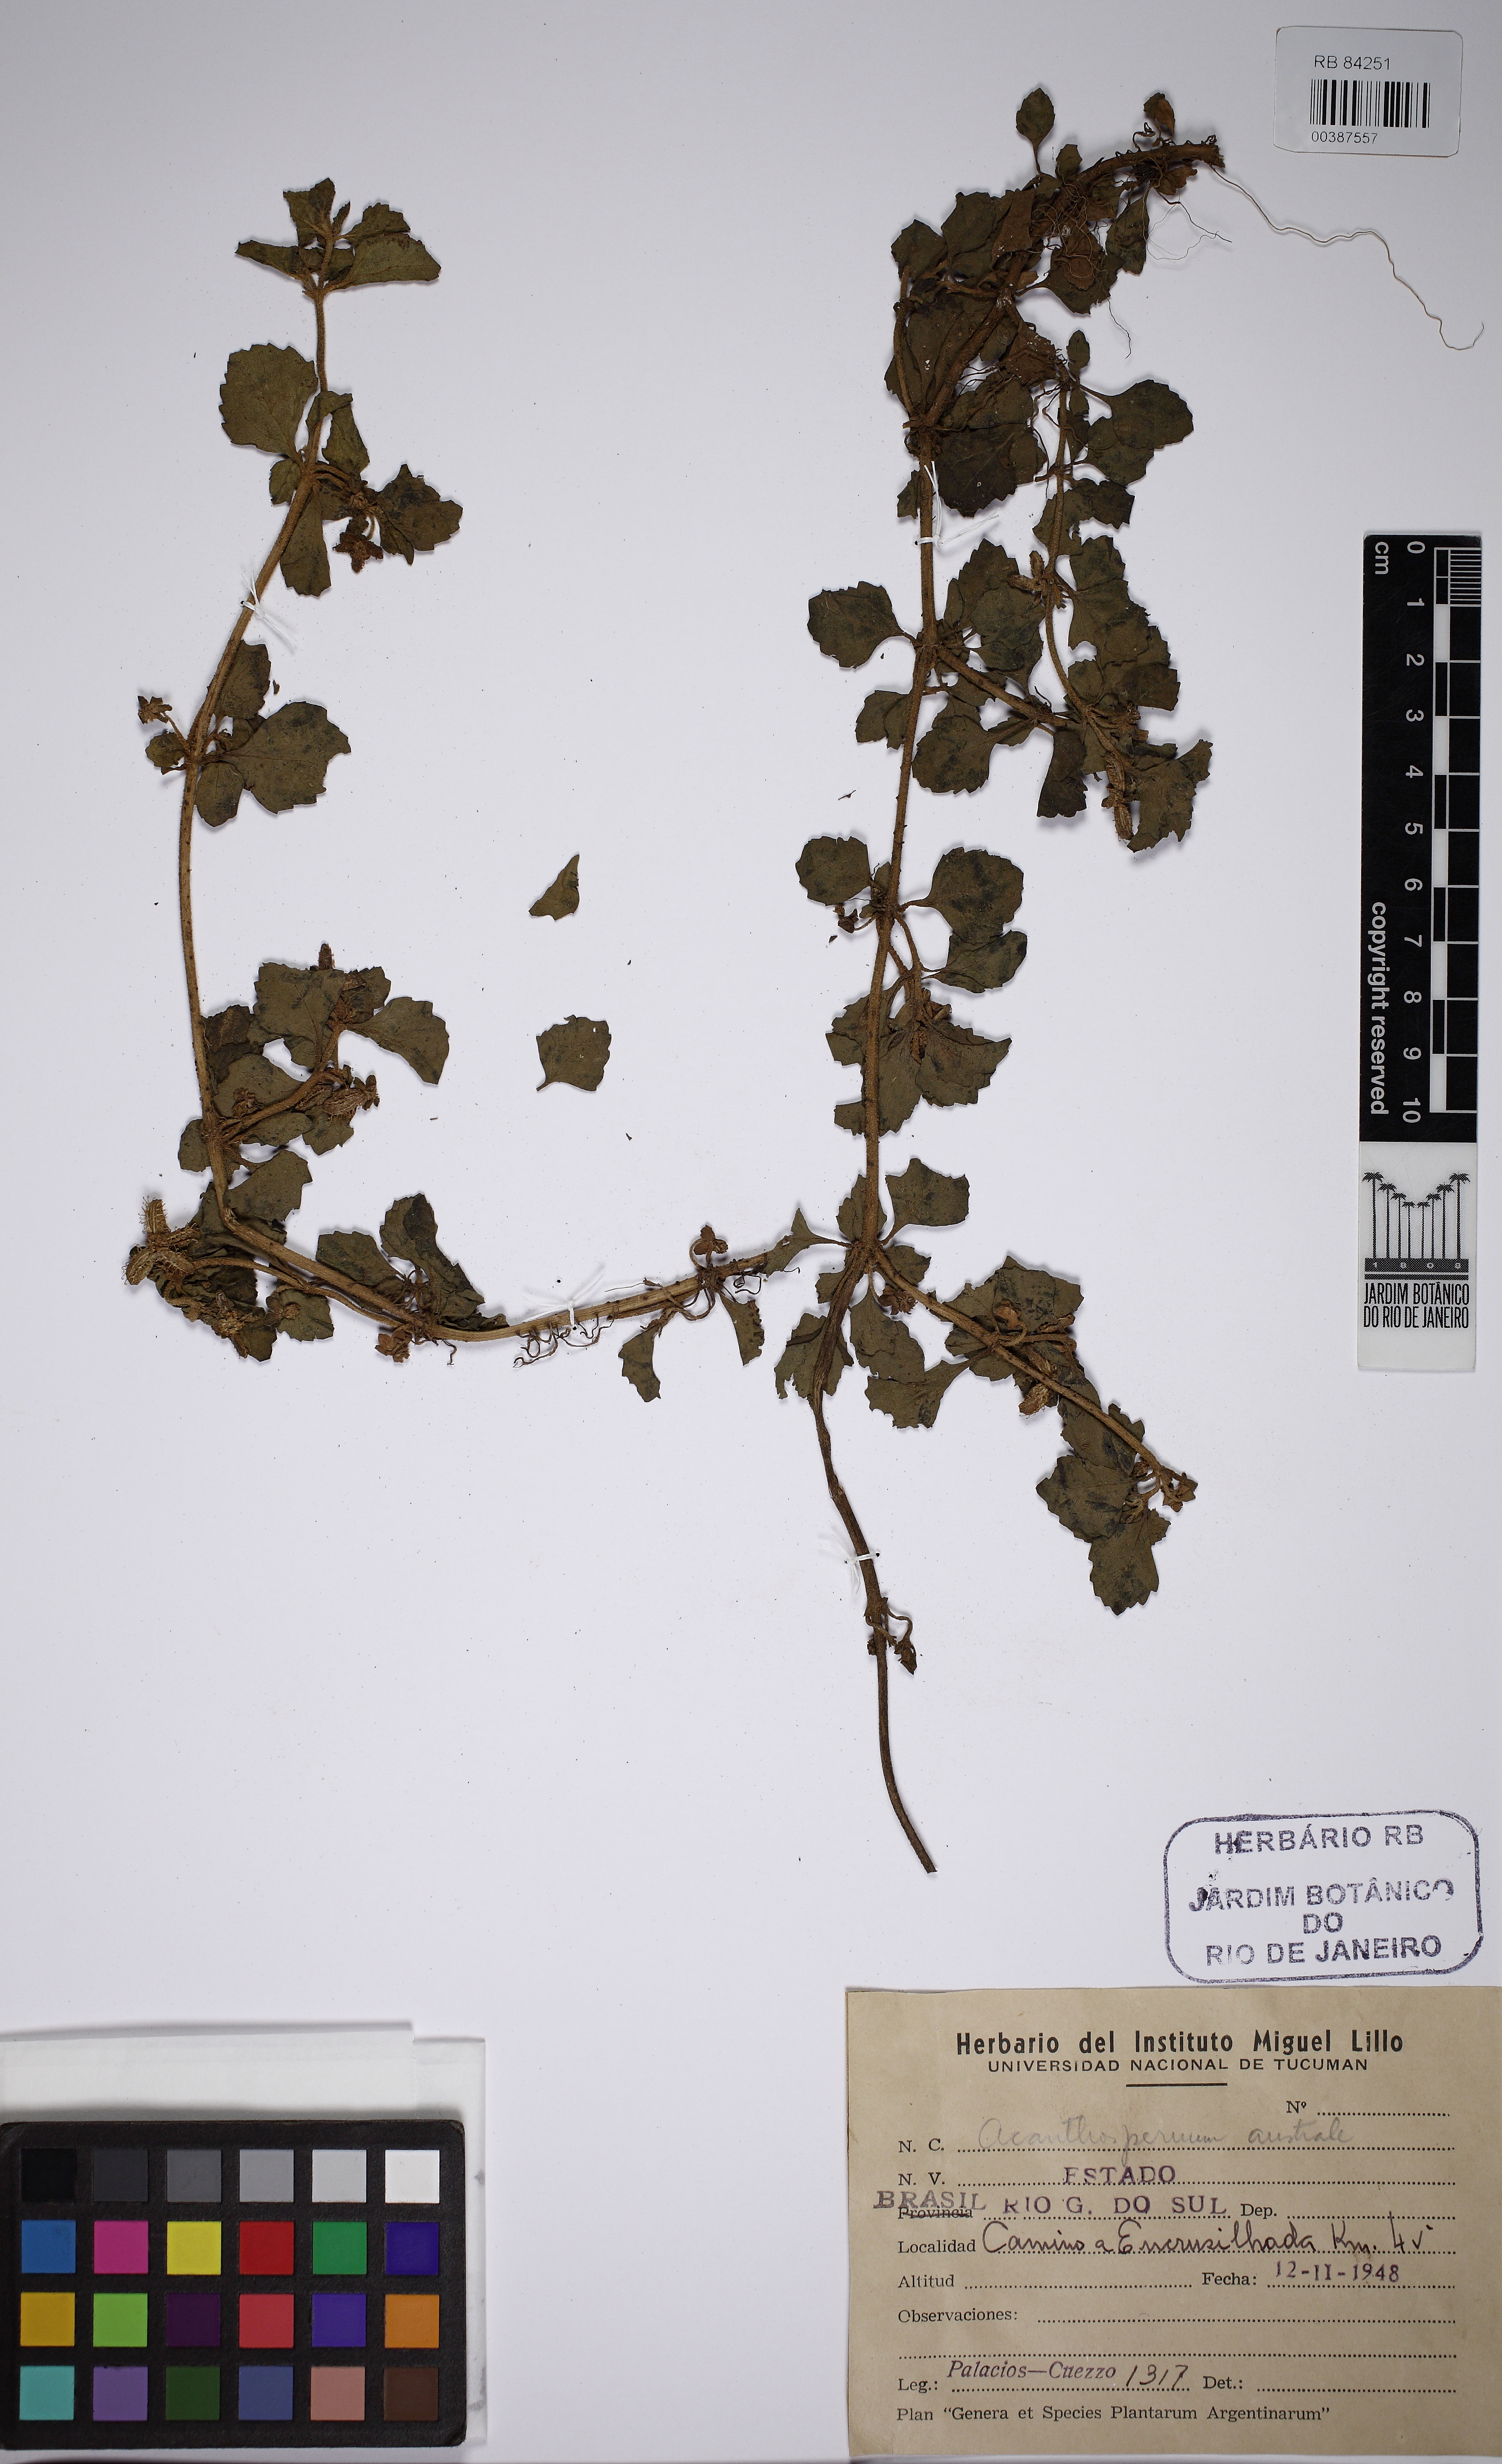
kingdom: Plantae
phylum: Tracheophyta
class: Magnoliopsida
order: Asterales
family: Asteraceae
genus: Acanthospermum
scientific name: Acanthospermum australe
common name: Paraguayan starbur
